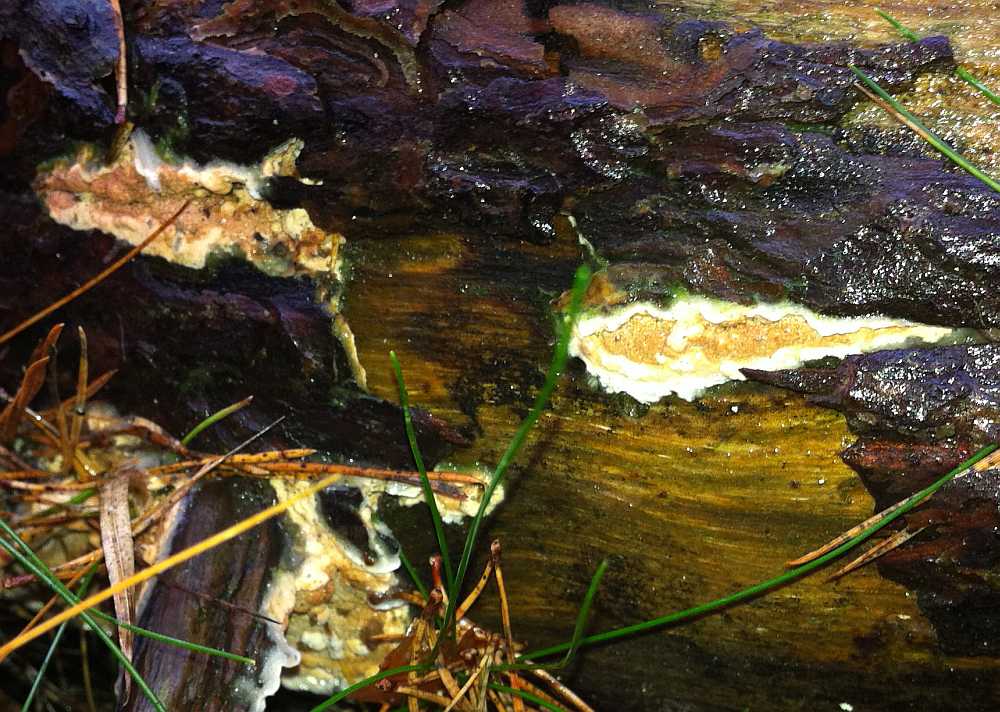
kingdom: Fungi
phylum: Basidiomycota
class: Agaricomycetes
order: Polyporales
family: Incrustoporiaceae
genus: Skeletocutis
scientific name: Skeletocutis amorpha
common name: orange krystalporesvamp
